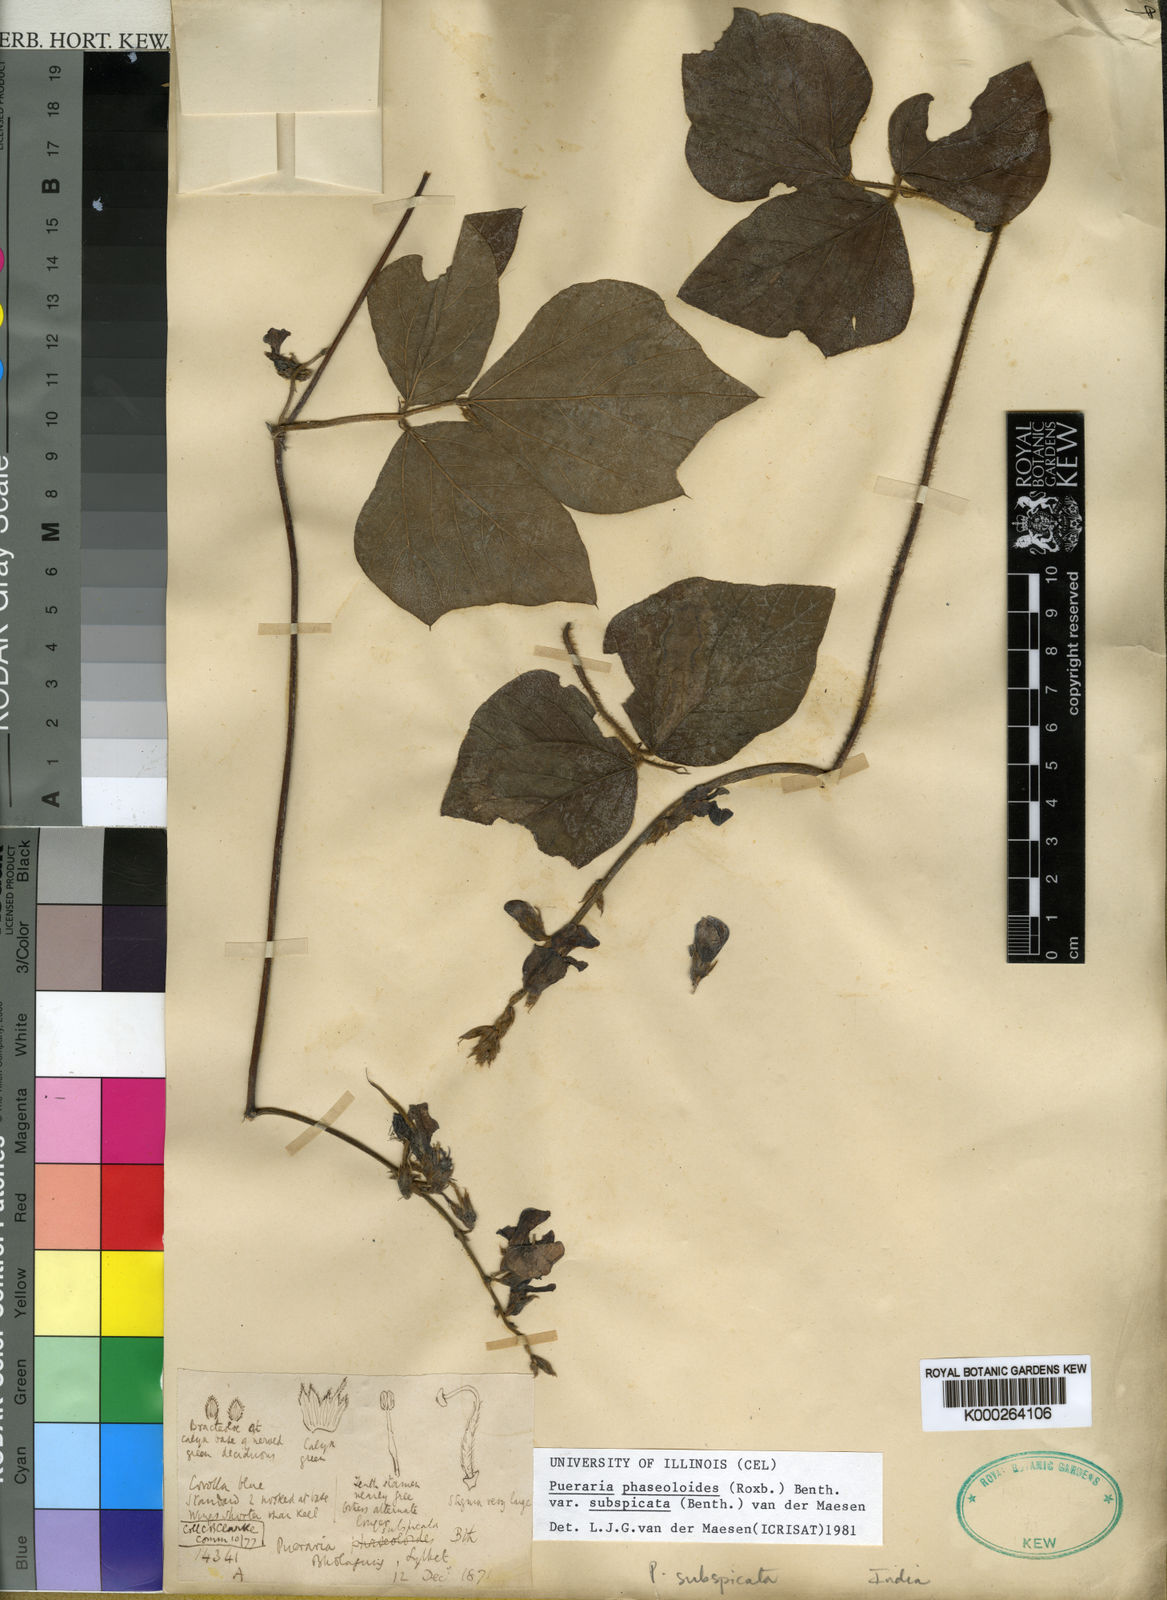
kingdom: Plantae
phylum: Tracheophyta
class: Magnoliopsida
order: Fabales
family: Fabaceae
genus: Neustanthus
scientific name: Neustanthus phaseoloides
